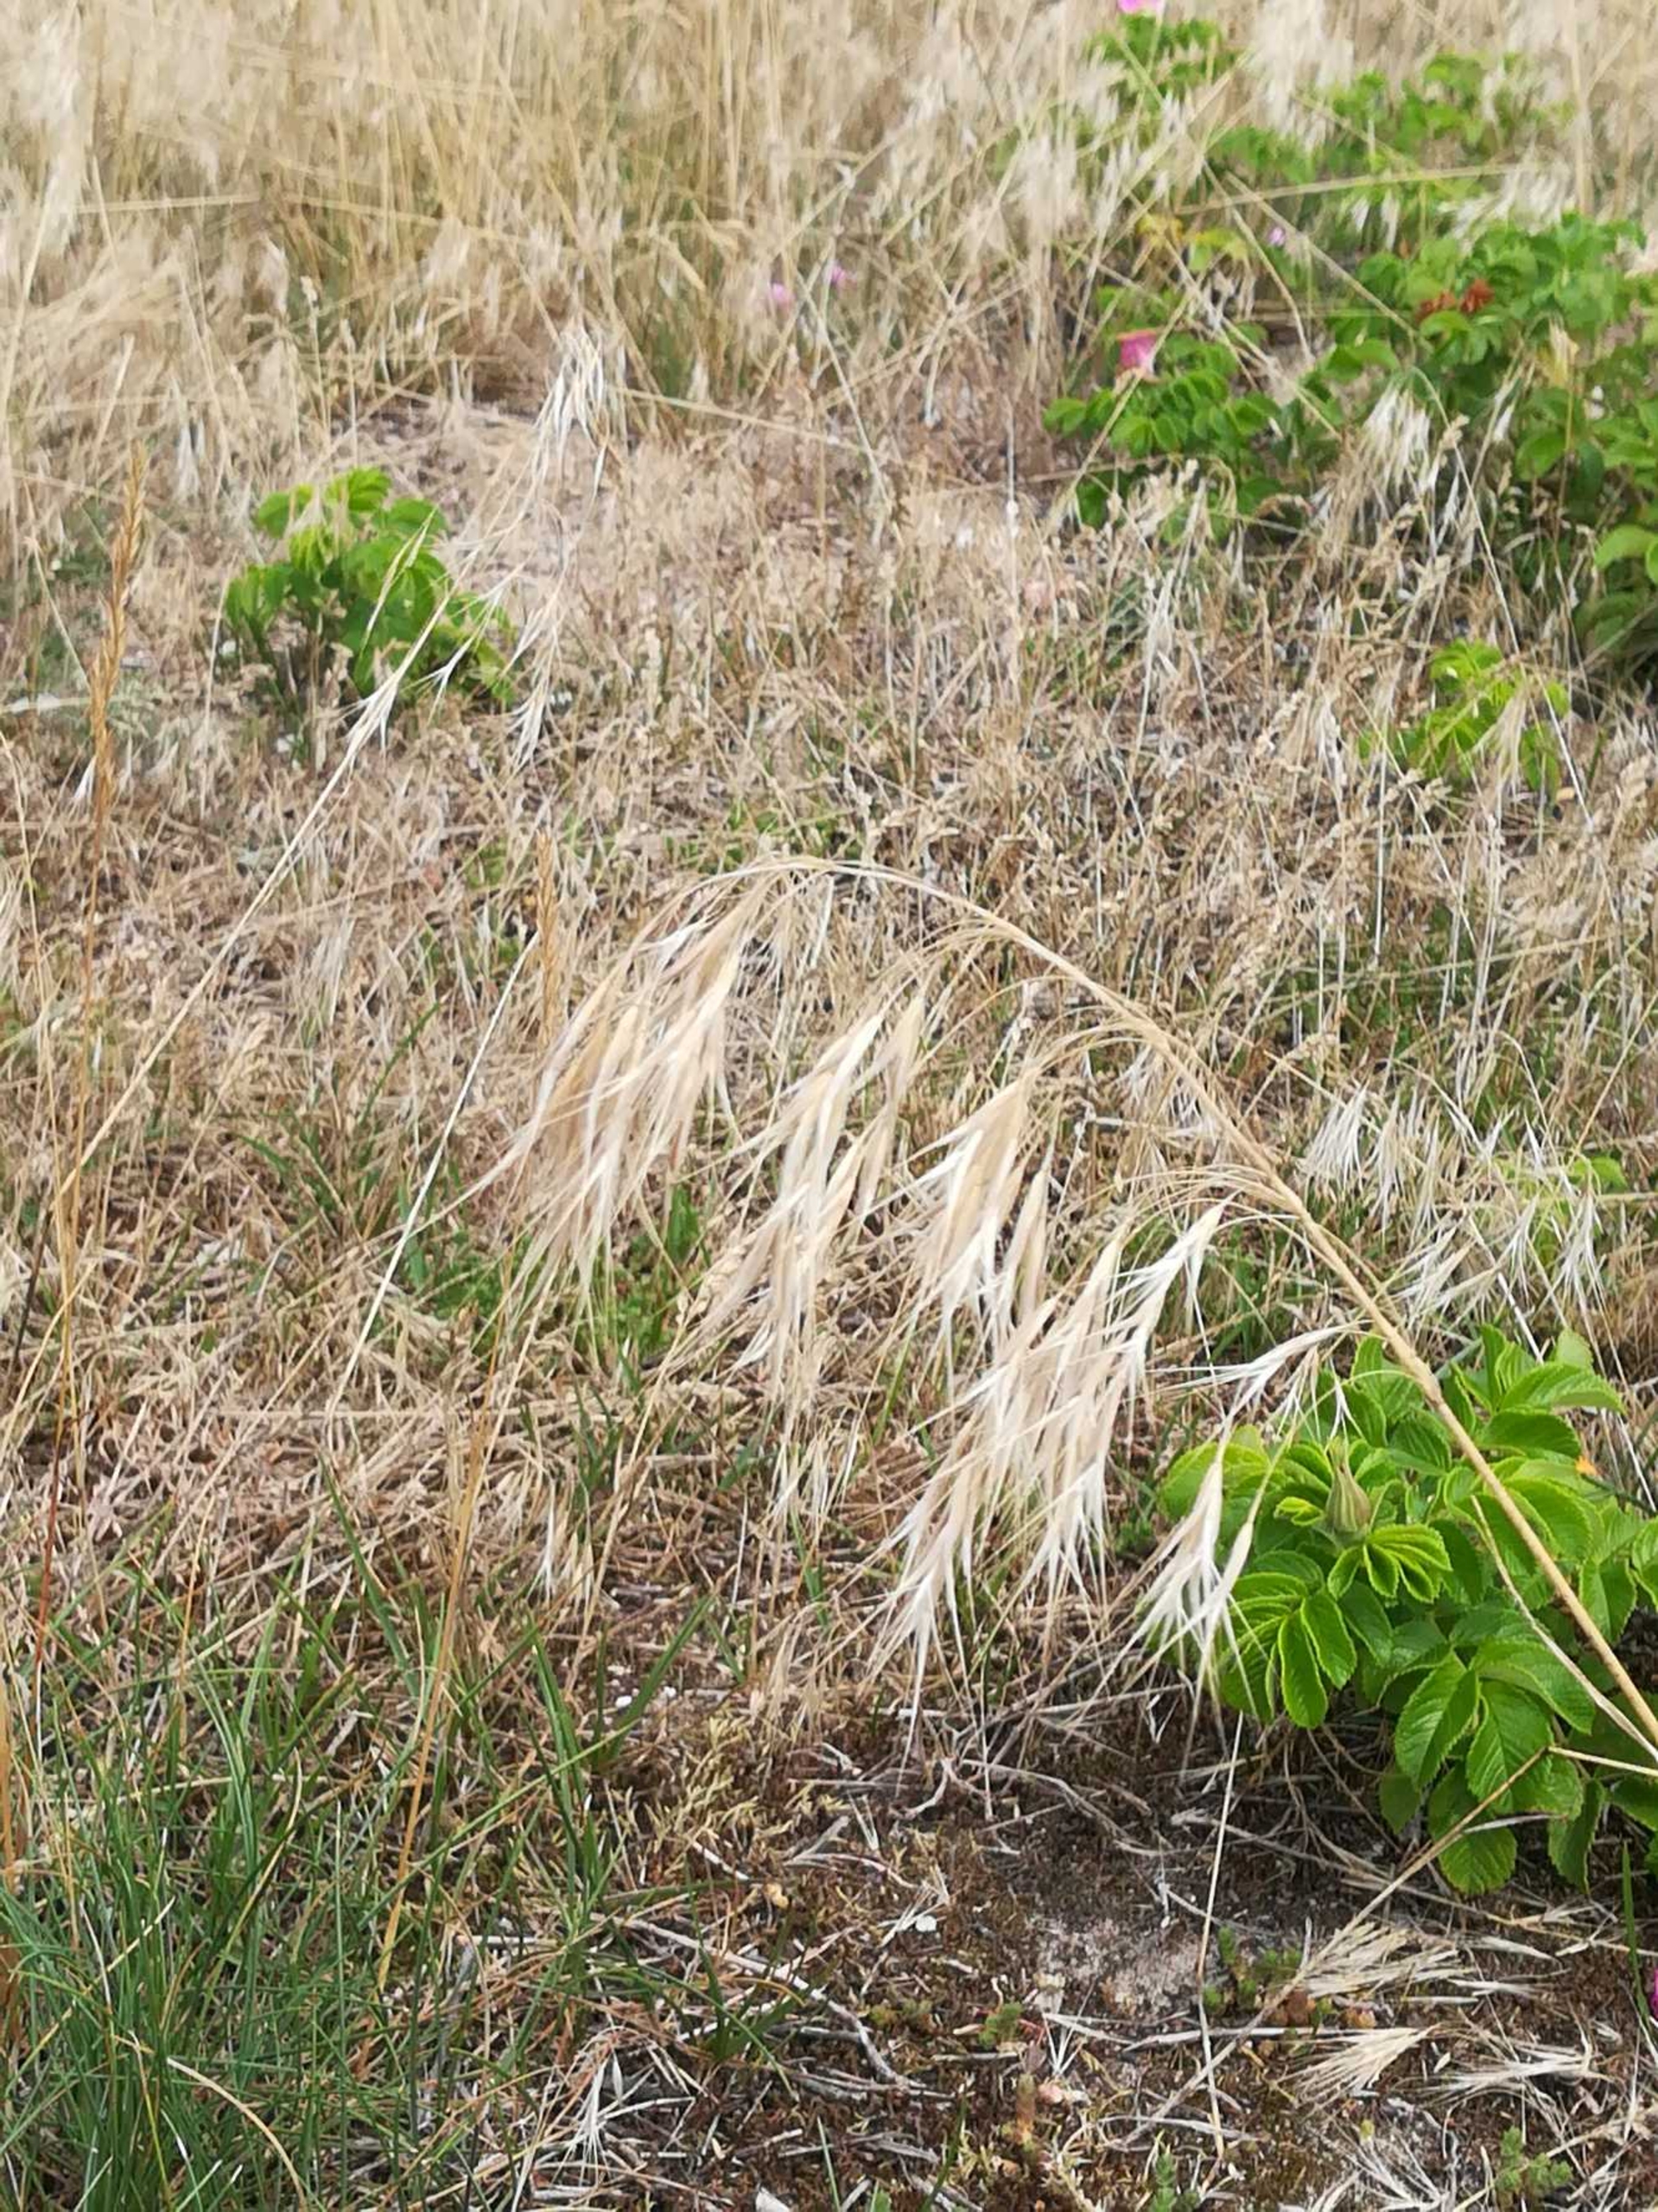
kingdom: Plantae
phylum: Tracheophyta
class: Liliopsida
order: Poales
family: Poaceae
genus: Bromus
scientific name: Bromus tectorum
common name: Tag-hejre
